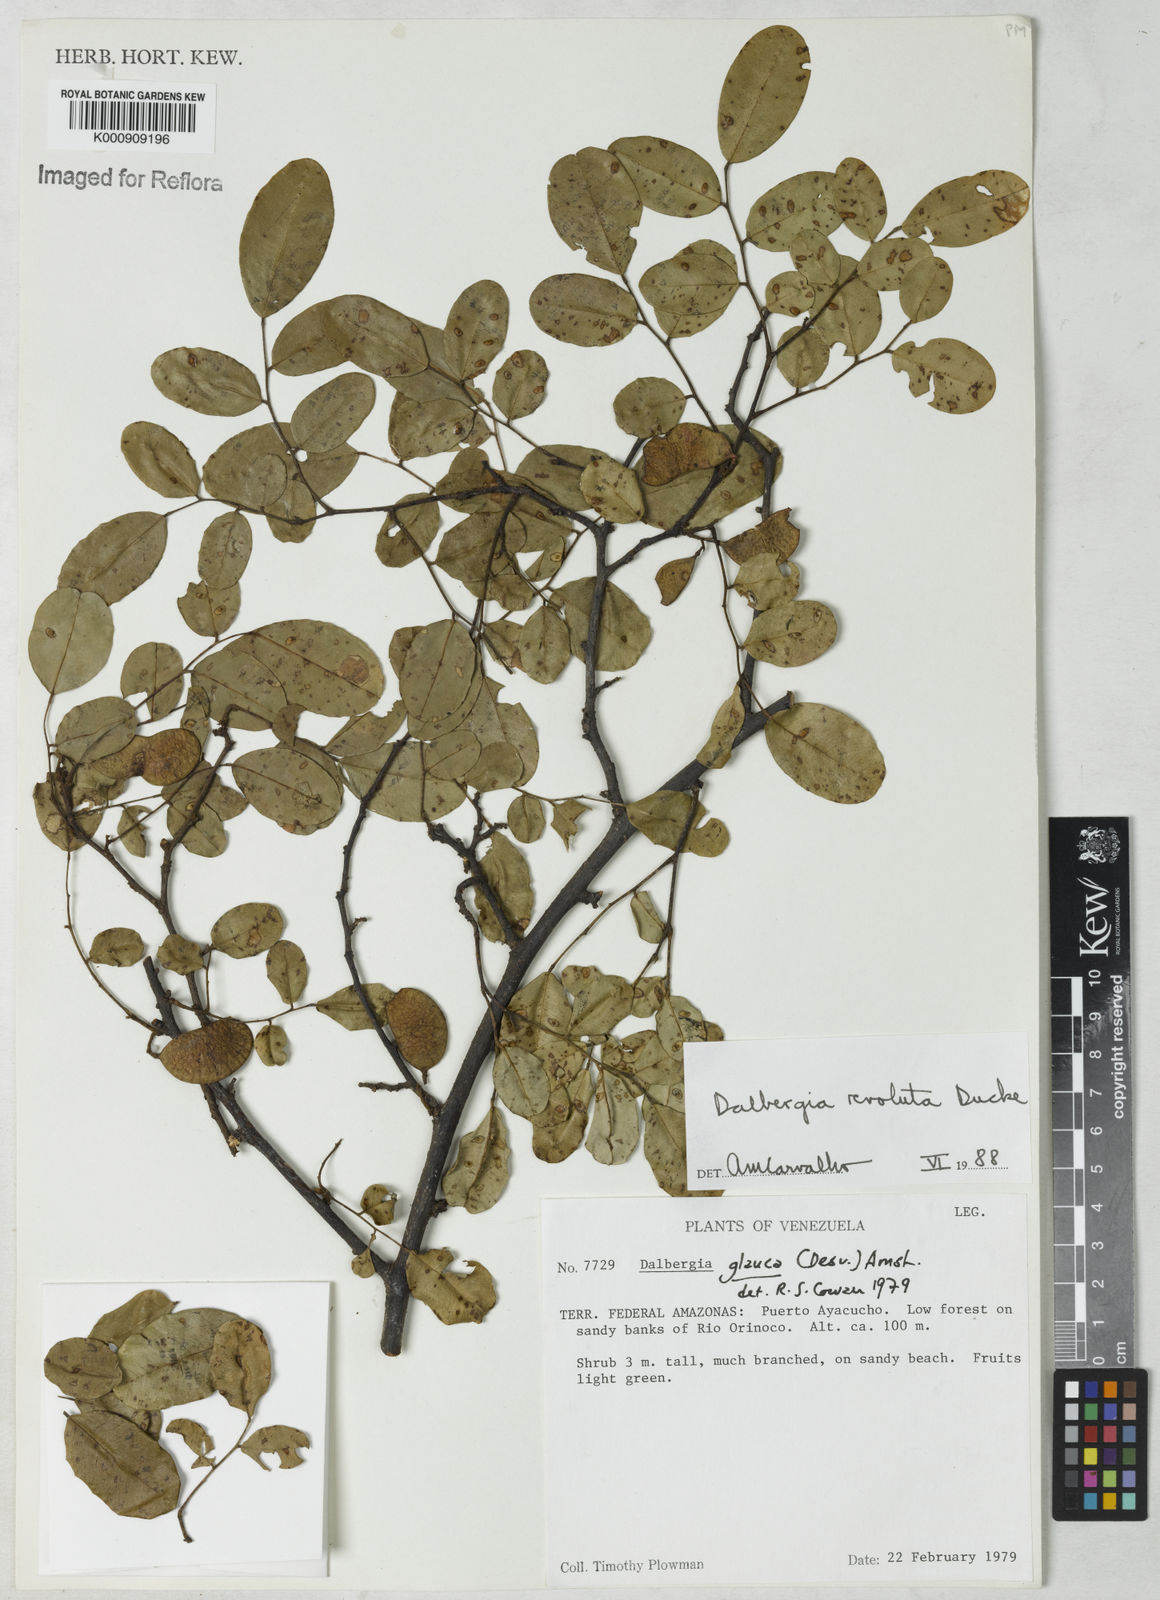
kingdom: Plantae
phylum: Tracheophyta
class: Magnoliopsida
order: Fabales
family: Fabaceae
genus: Dalbergia
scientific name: Dalbergia revoluta
